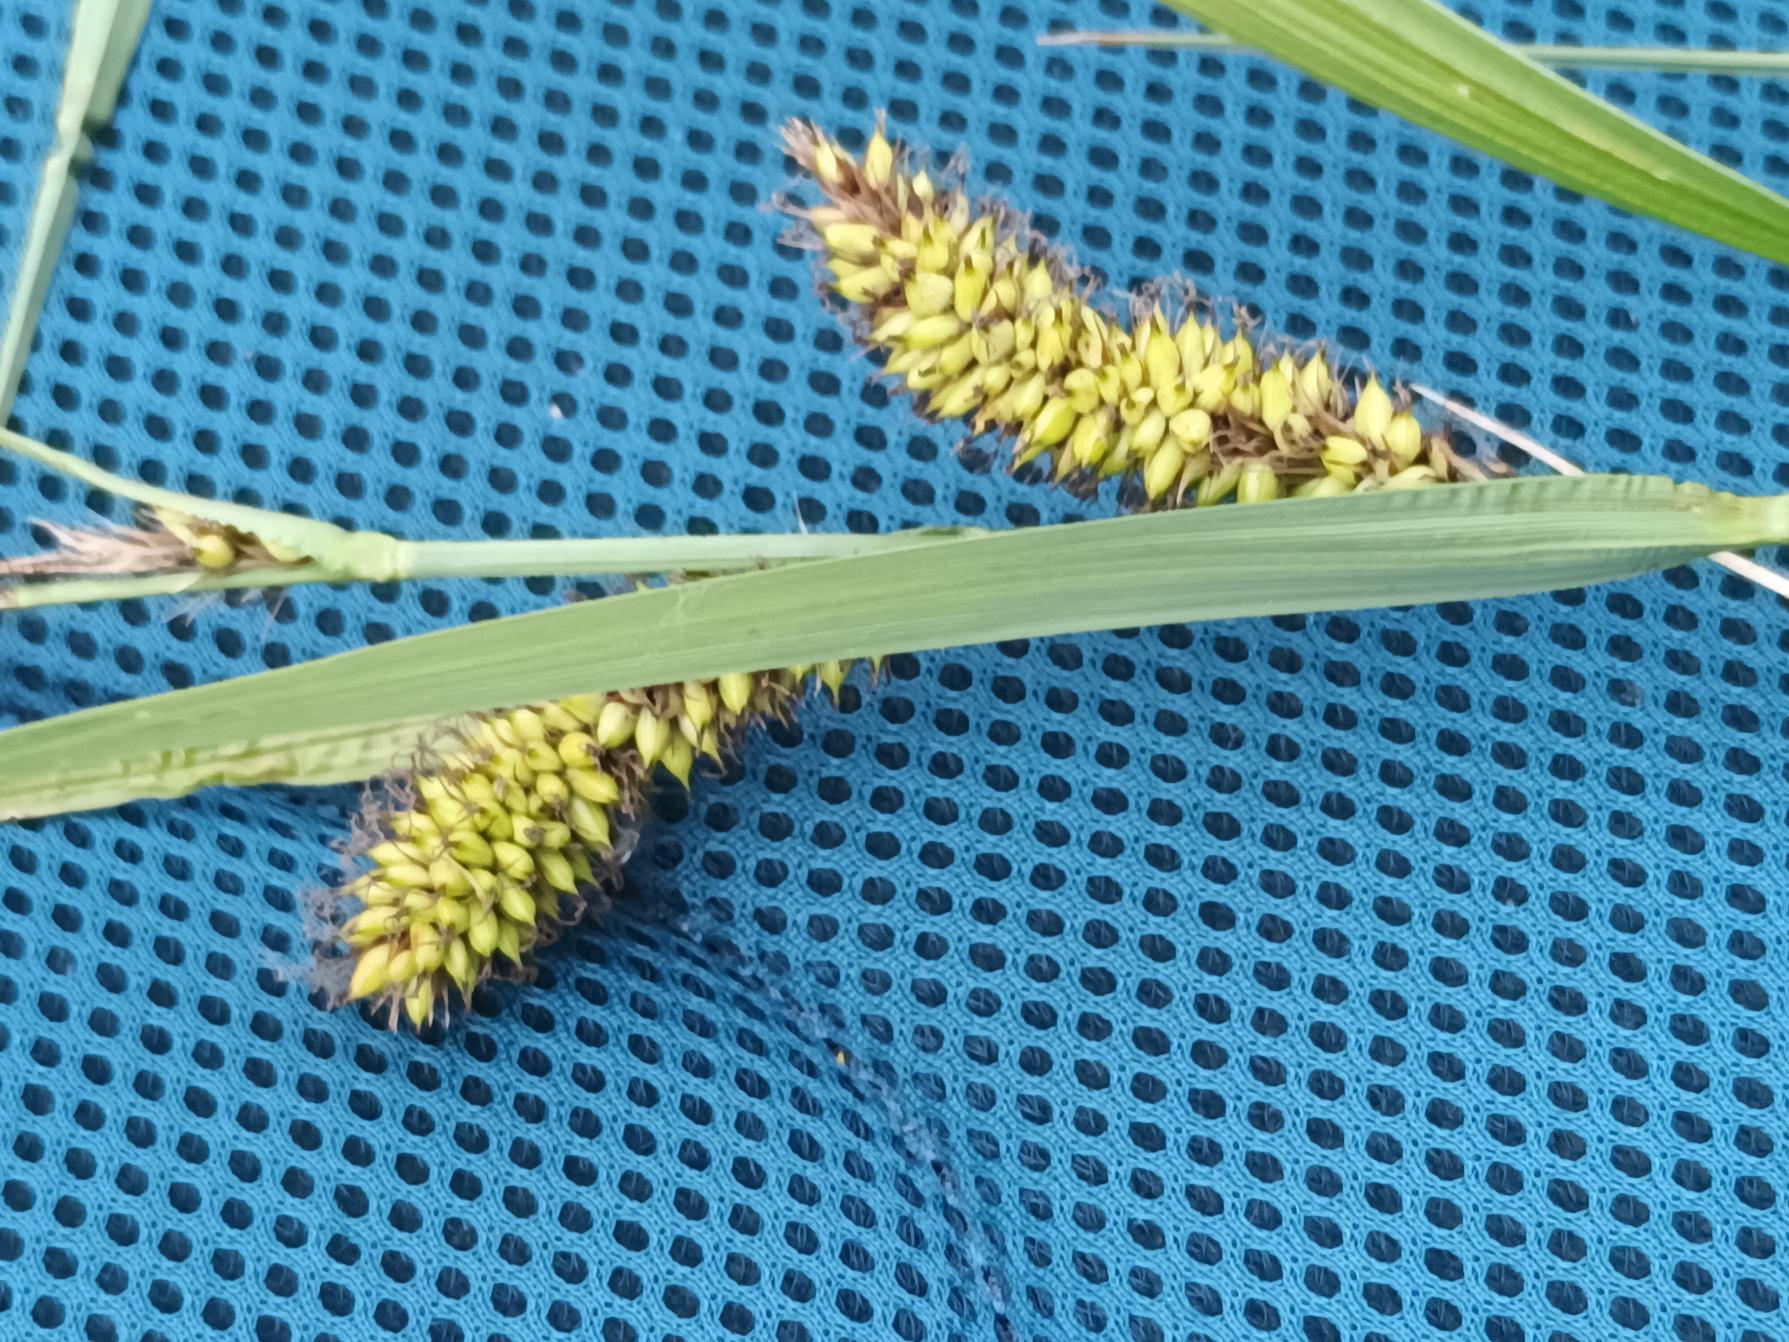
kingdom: Plantae
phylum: Tracheophyta
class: Liliopsida
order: Poales
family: Cyperaceae
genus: Carex
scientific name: Carex riparia
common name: Tykakset star
